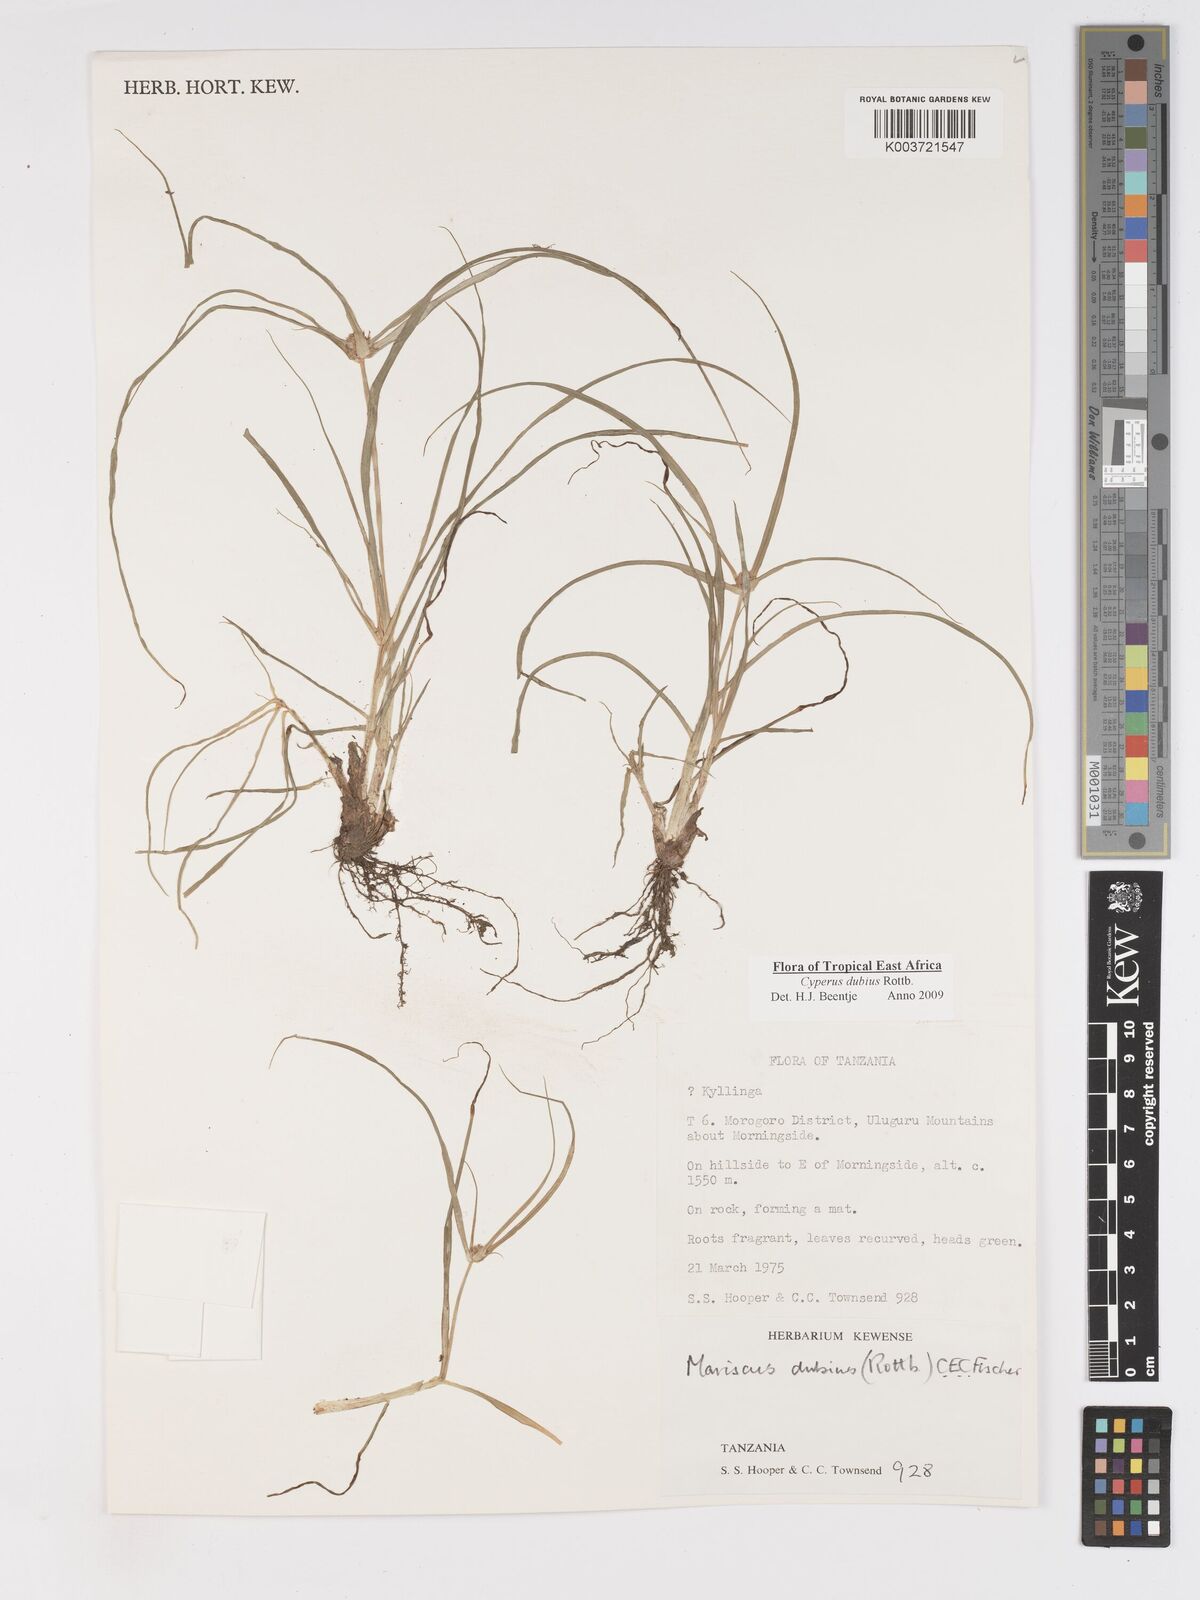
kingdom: Plantae
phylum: Tracheophyta
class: Liliopsida
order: Poales
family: Cyperaceae
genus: Cyperus
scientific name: Cyperus dubius
